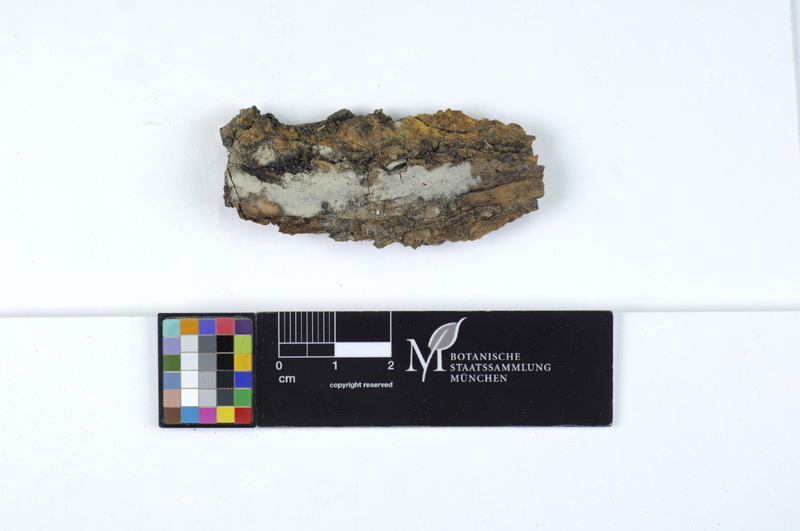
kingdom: Fungi
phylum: Basidiomycota
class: Agaricomycetes
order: Agaricales
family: Pterulaceae
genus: Coronicium
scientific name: Coronicium alboglaucum
